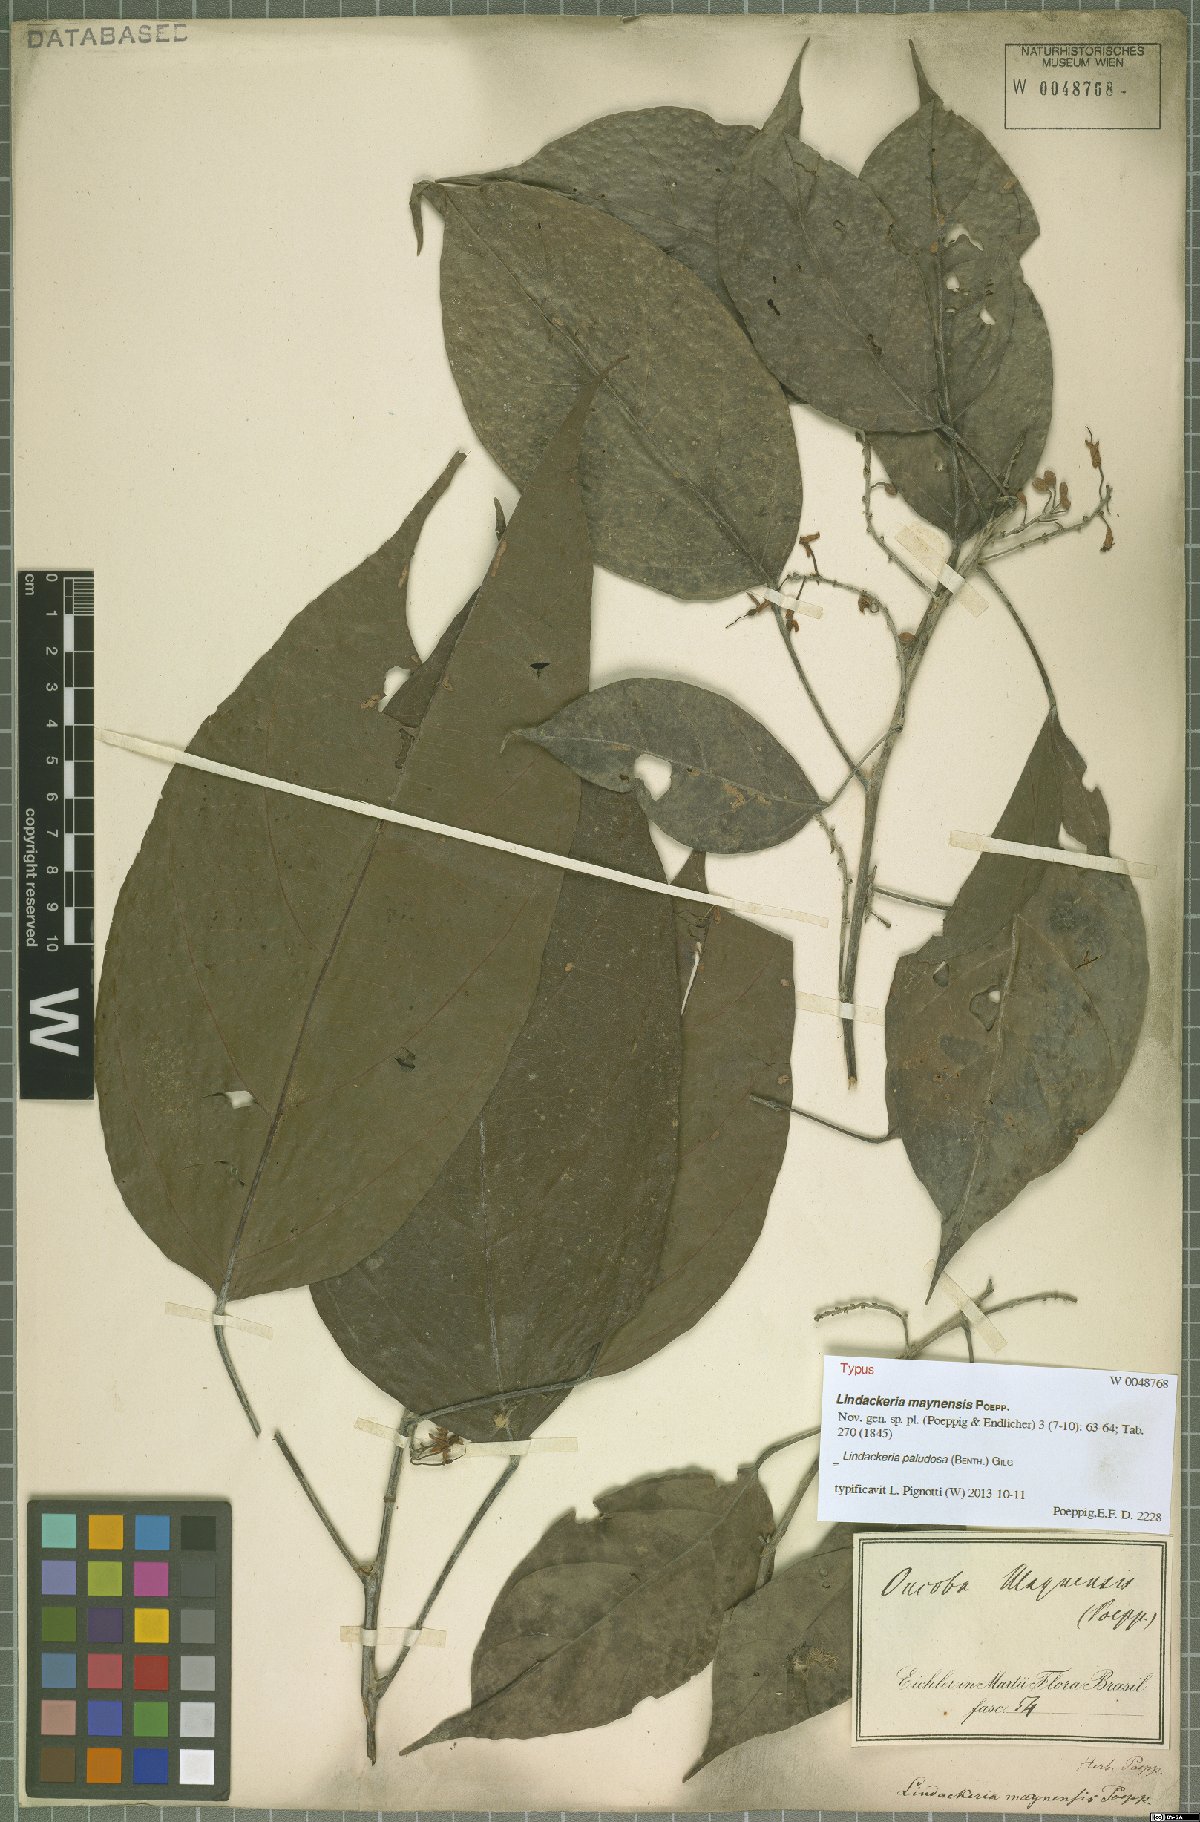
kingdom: Plantae
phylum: Tracheophyta
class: Magnoliopsida
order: Malpighiales
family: Achariaceae
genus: Lindackeria
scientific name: Lindackeria paludosa
